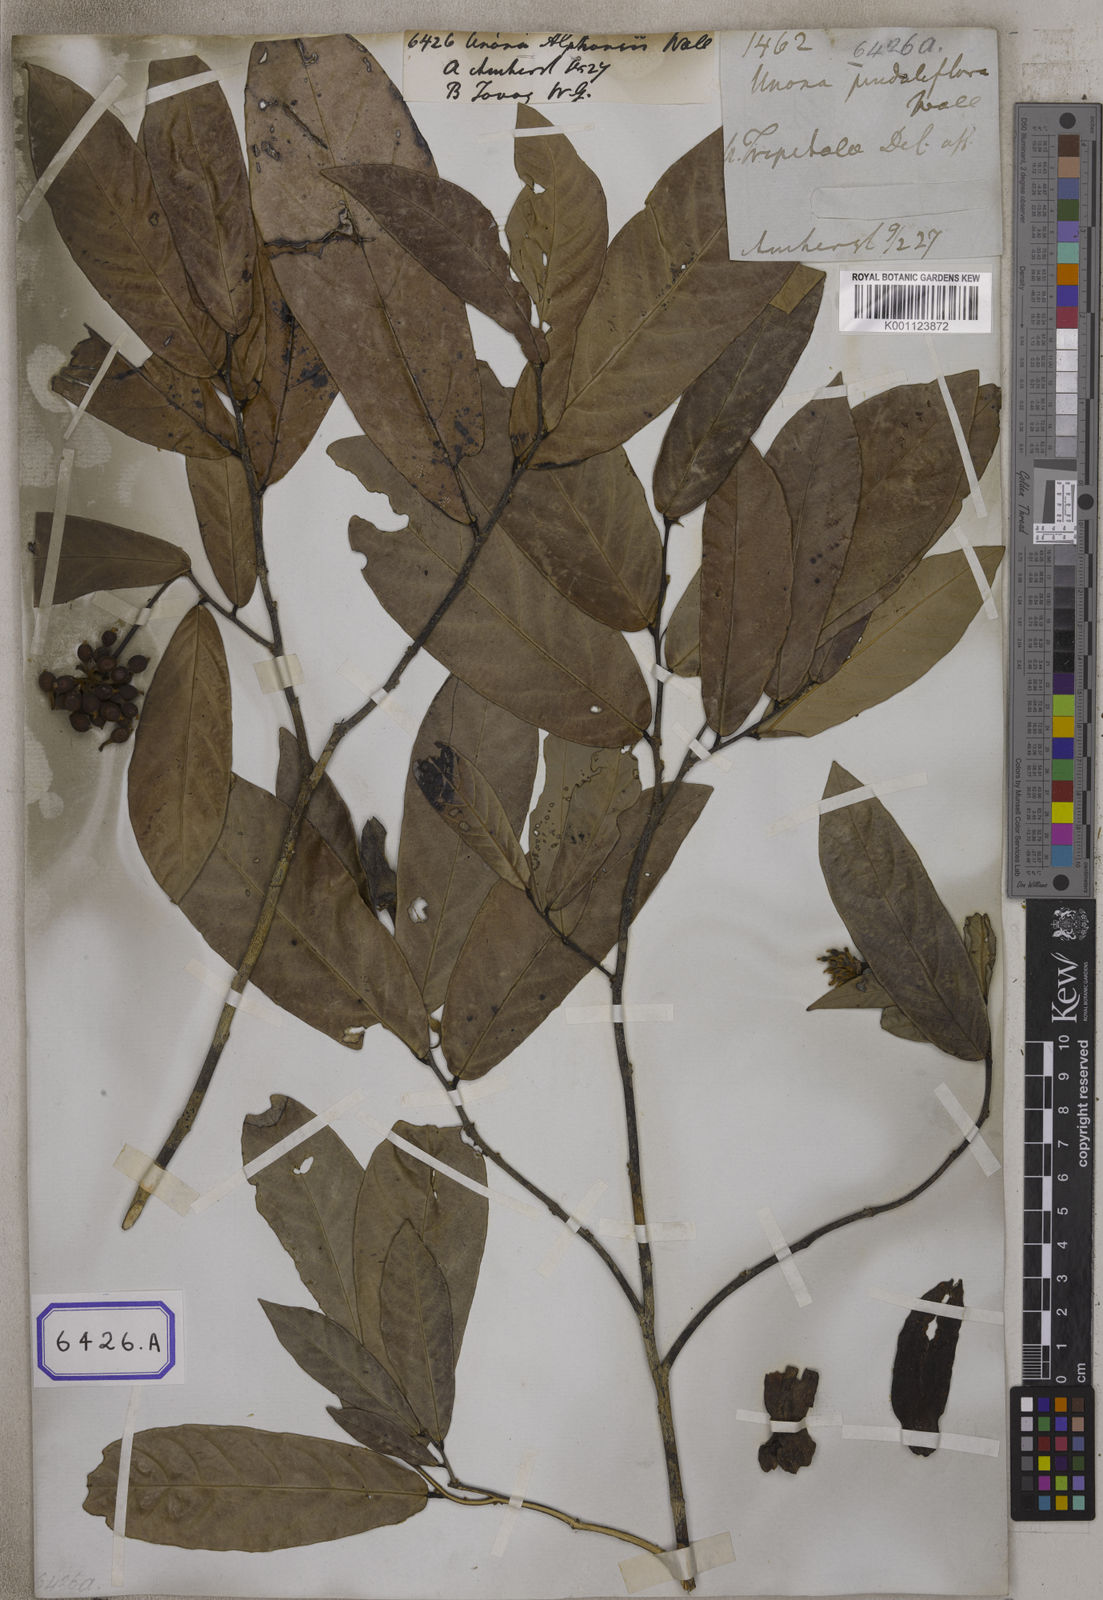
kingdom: Plantae
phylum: Tracheophyta
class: Magnoliopsida
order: Magnoliales
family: Annonaceae
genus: Dasymaschalon
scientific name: Dasymaschalon dasymaschalum
